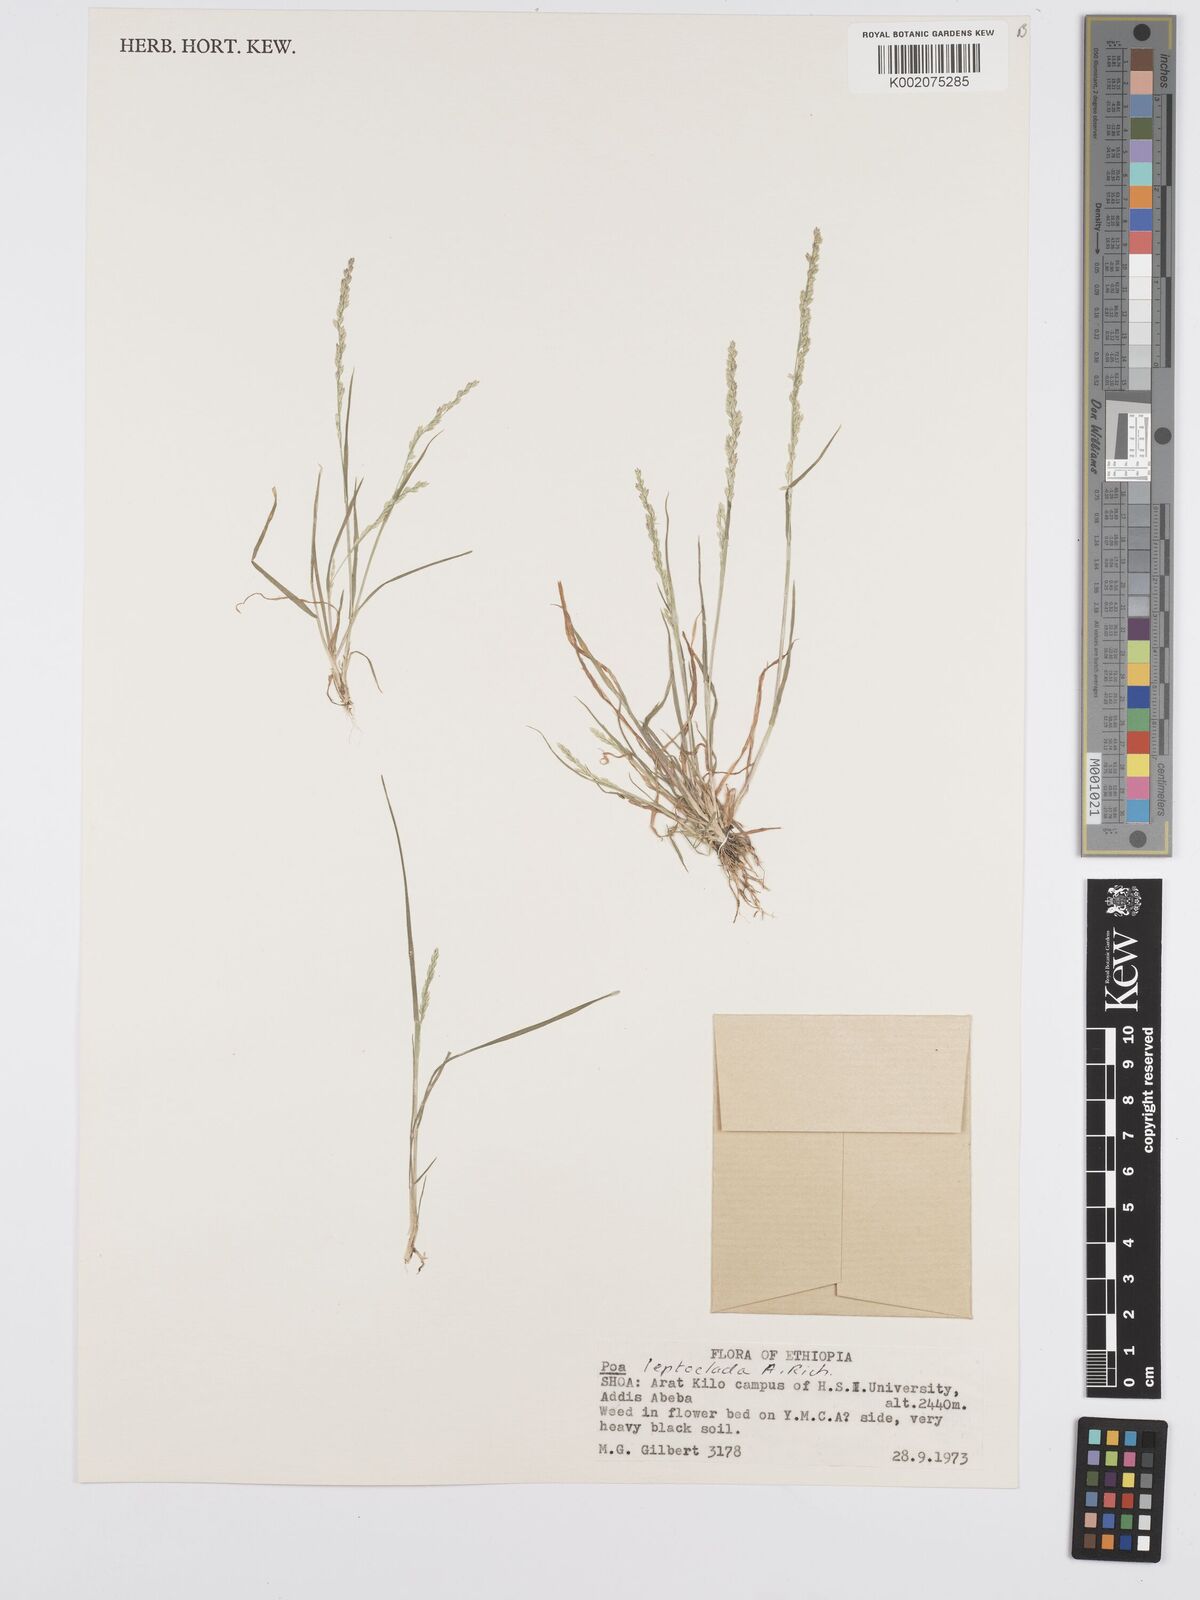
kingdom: Plantae
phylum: Tracheophyta
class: Liliopsida
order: Poales
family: Poaceae
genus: Poa
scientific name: Poa leptoclada
